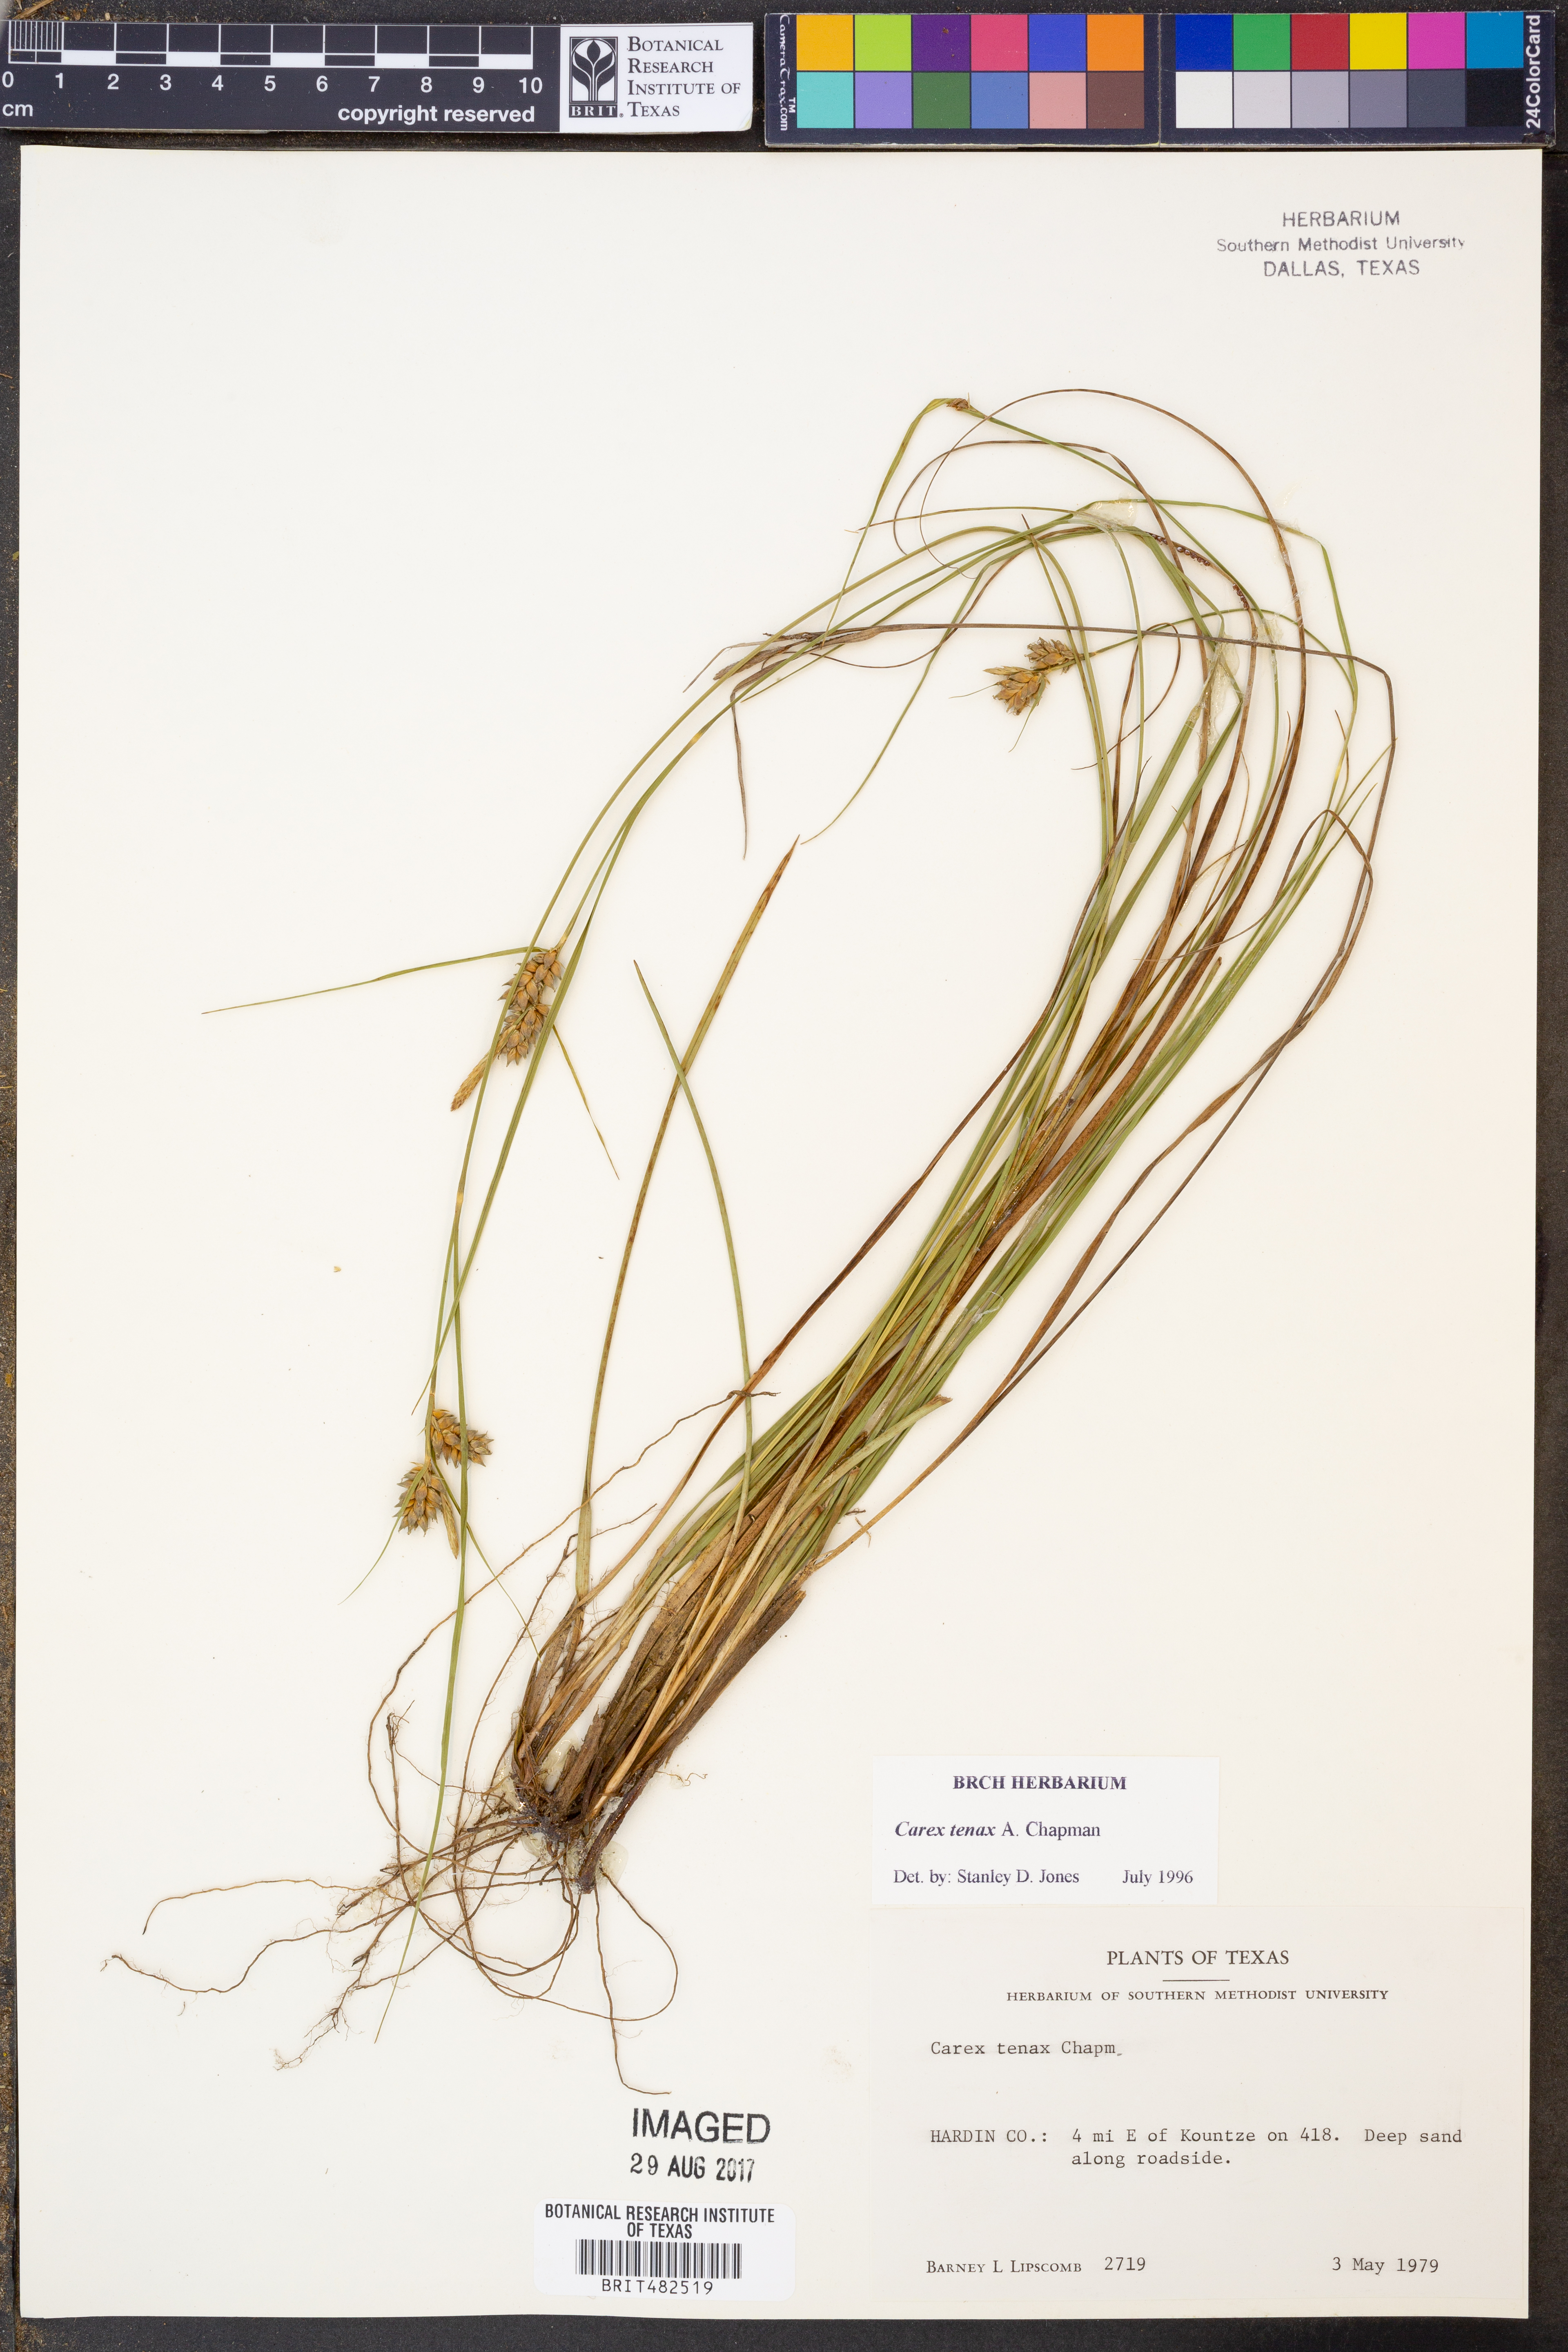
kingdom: Plantae
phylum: Tracheophyta
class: Liliopsida
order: Poales
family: Cyperaceae
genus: Carex
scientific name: Carex tenax
